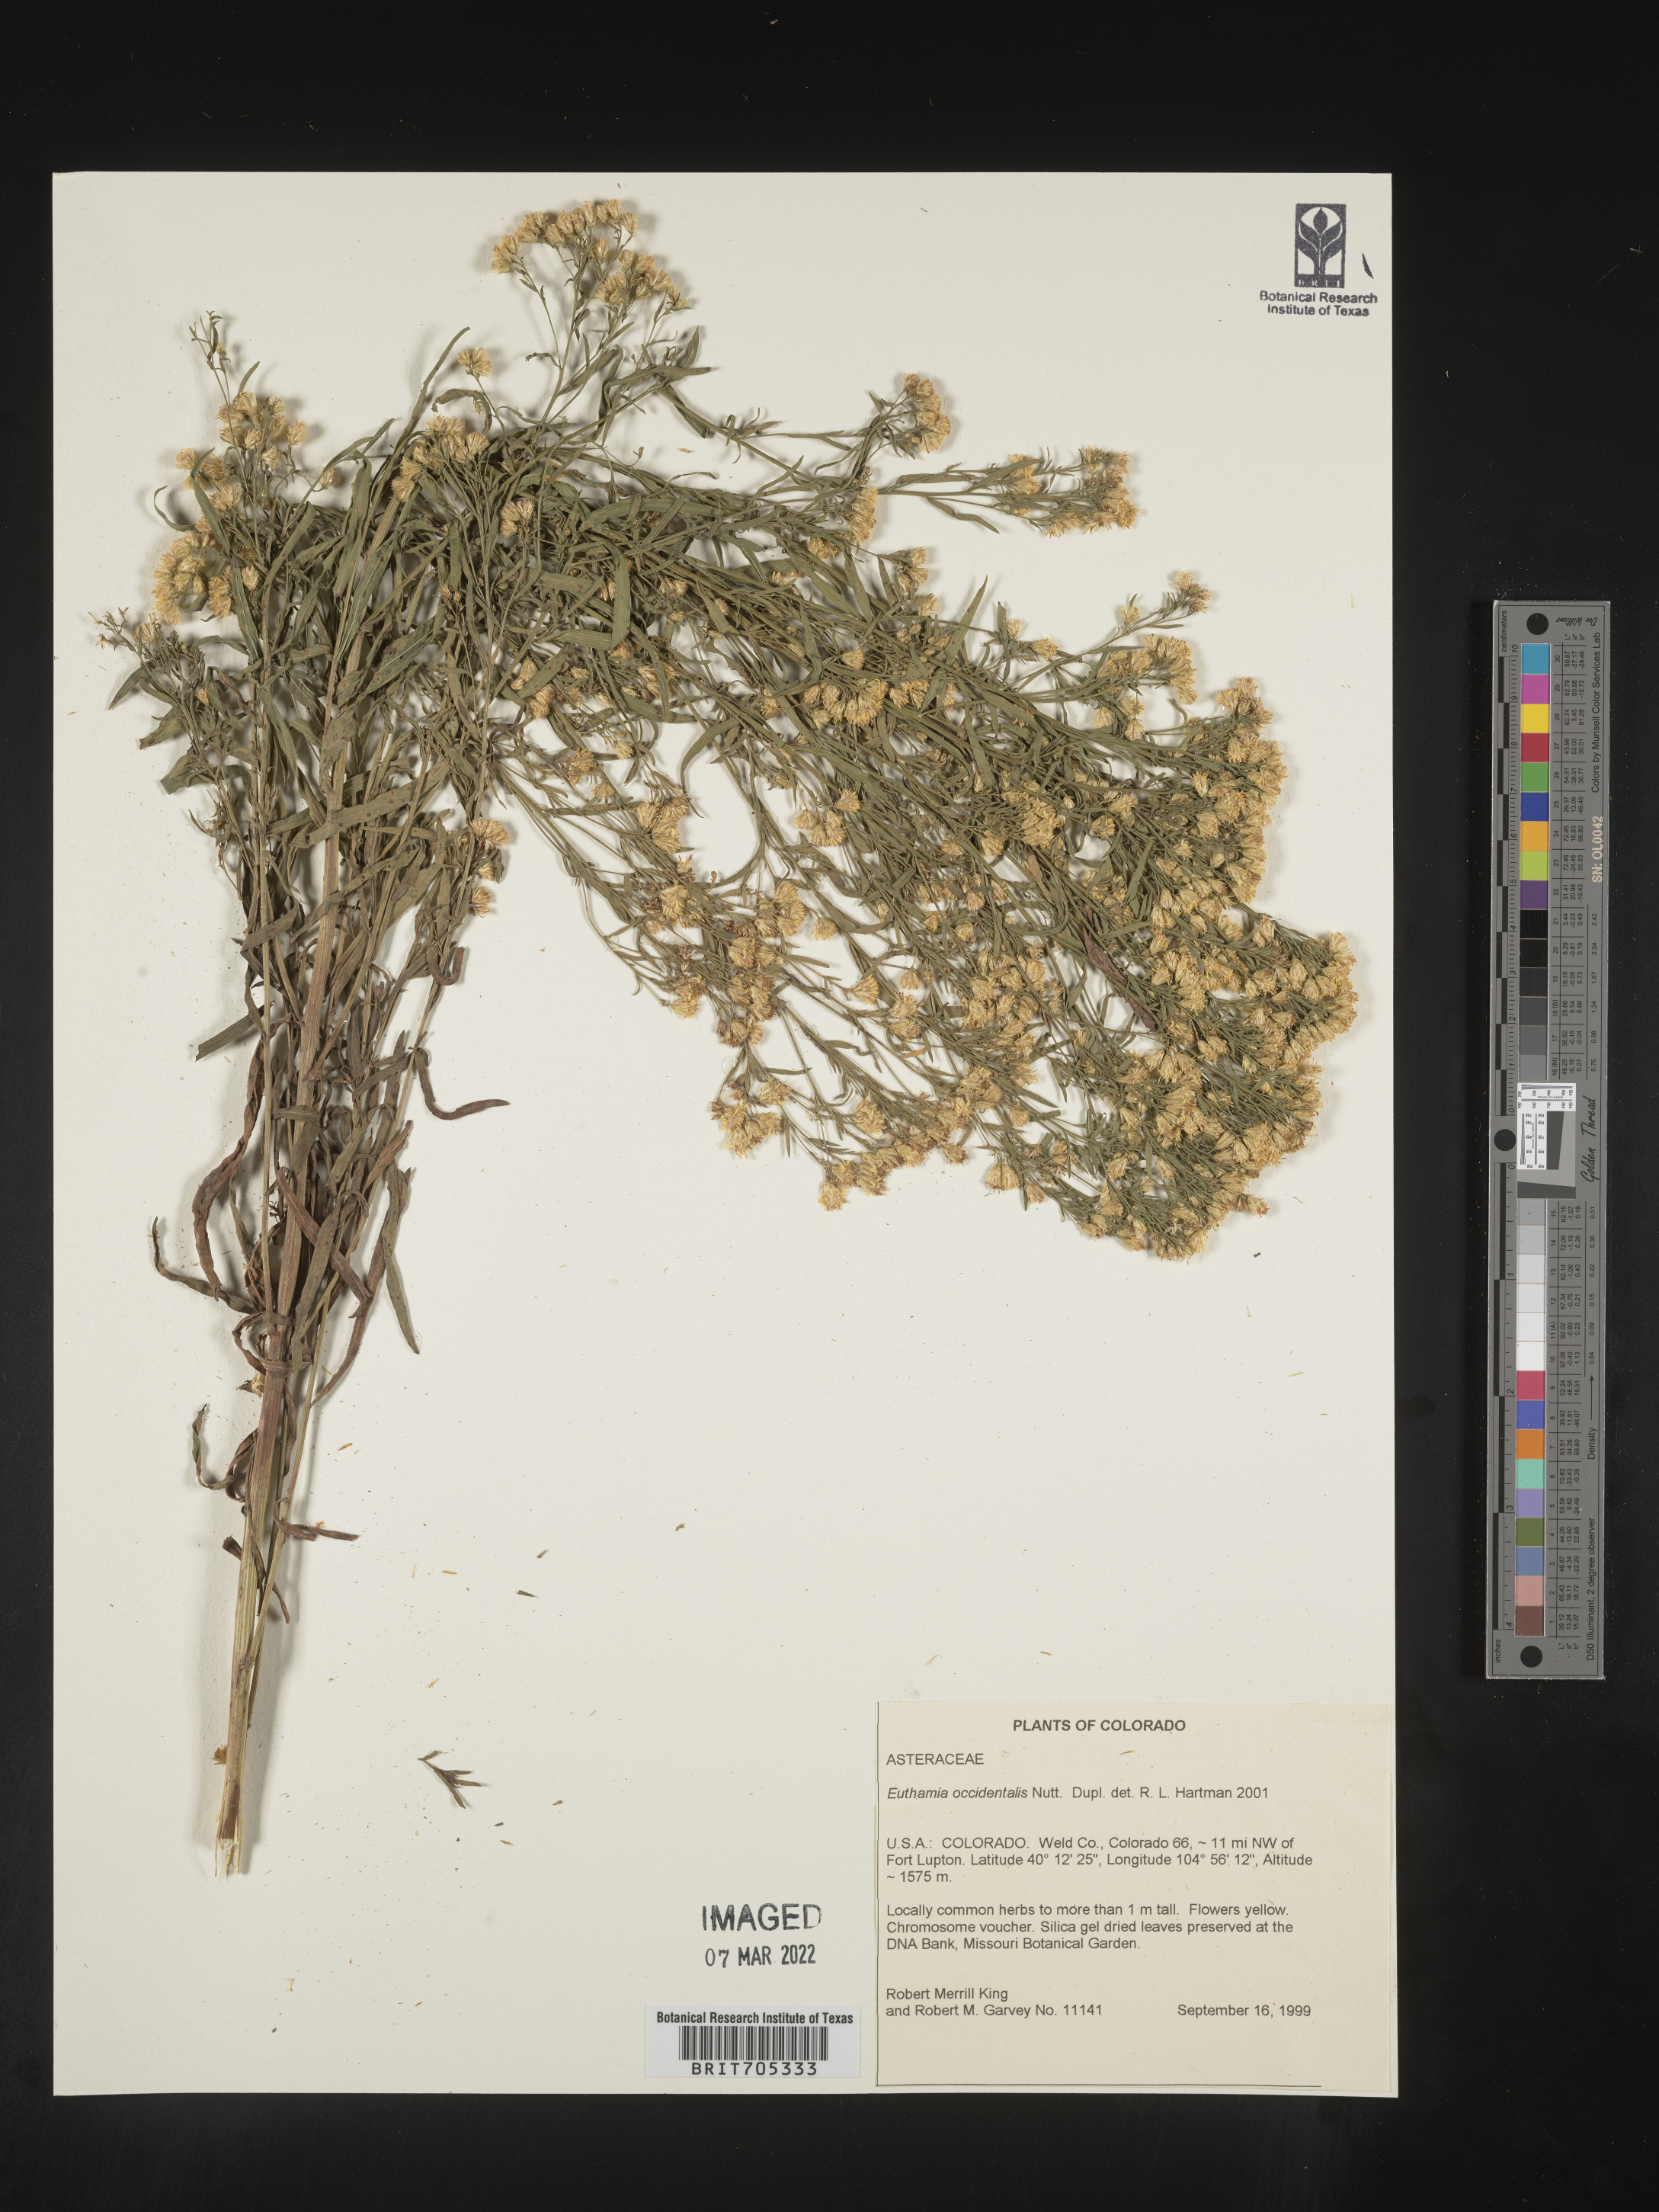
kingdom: Plantae
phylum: Tracheophyta
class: Magnoliopsida
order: Asterales
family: Asteraceae
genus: Euthamia
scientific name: Euthamia occidentalis
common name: Western goldentop
